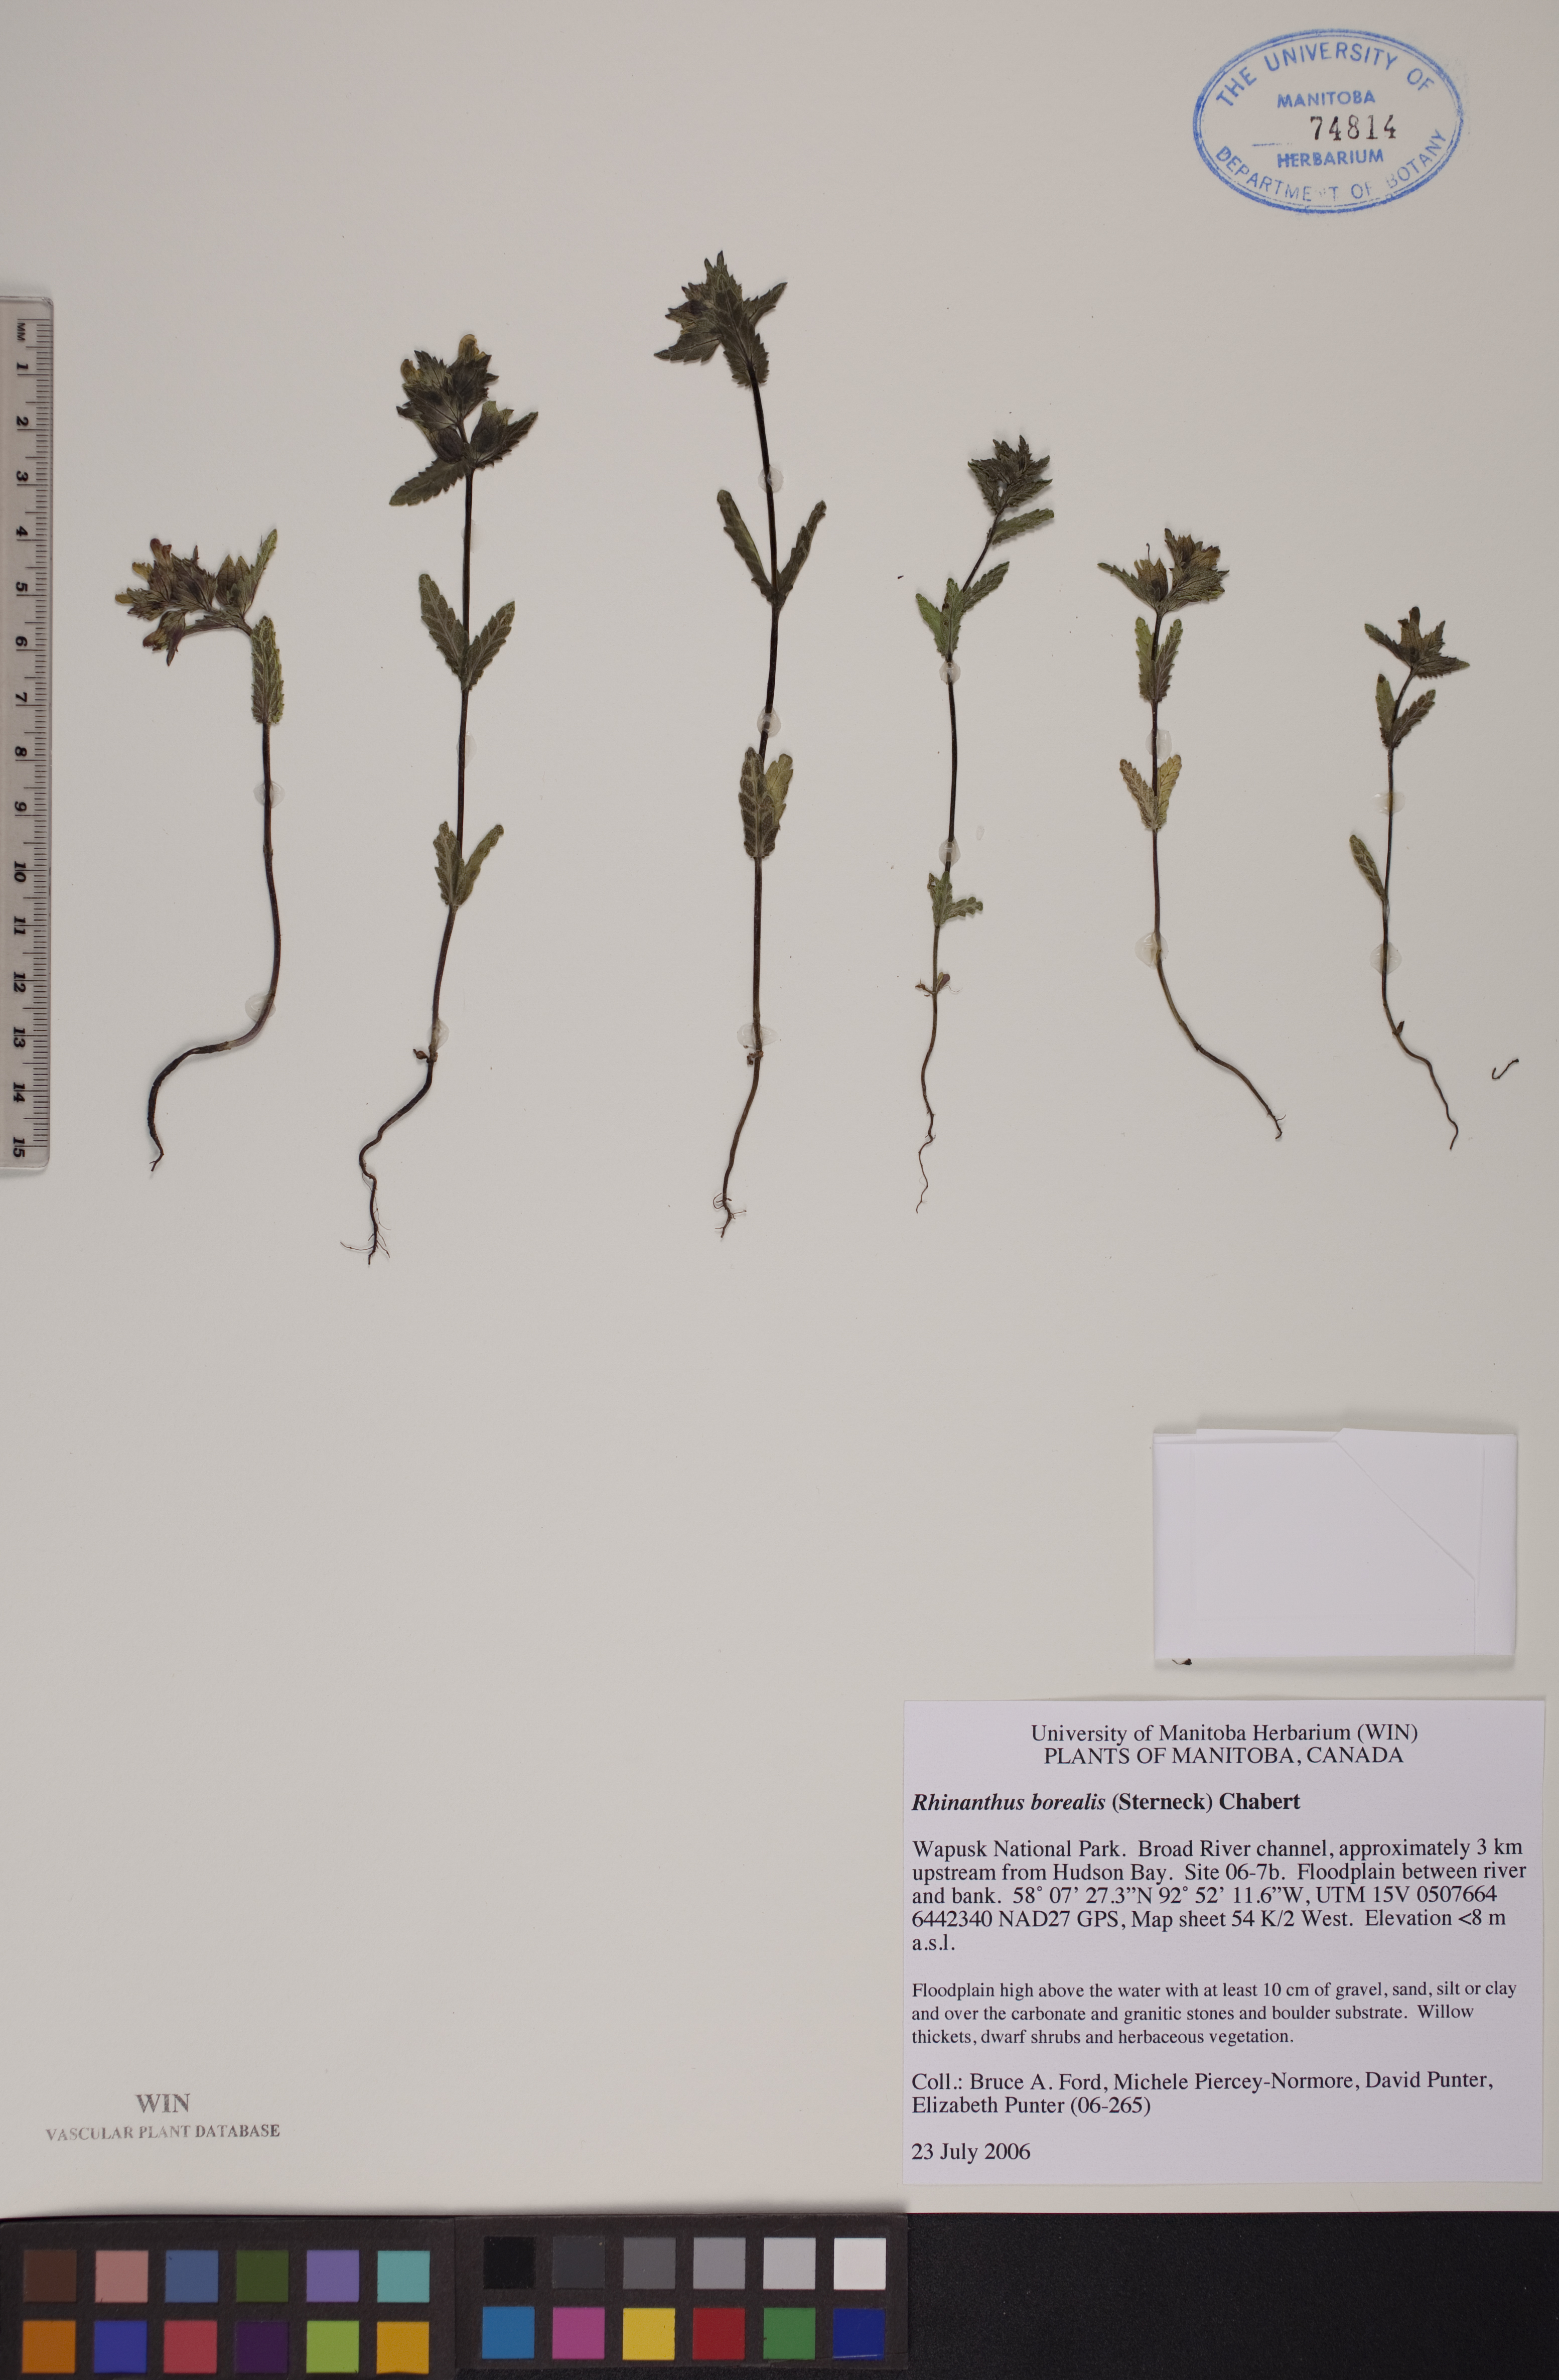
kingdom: Plantae
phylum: Tracheophyta
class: Magnoliopsida
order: Lamiales
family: Orobanchaceae
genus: Rhinanthus
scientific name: Rhinanthus groenlandicus
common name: Little yellow rattle
